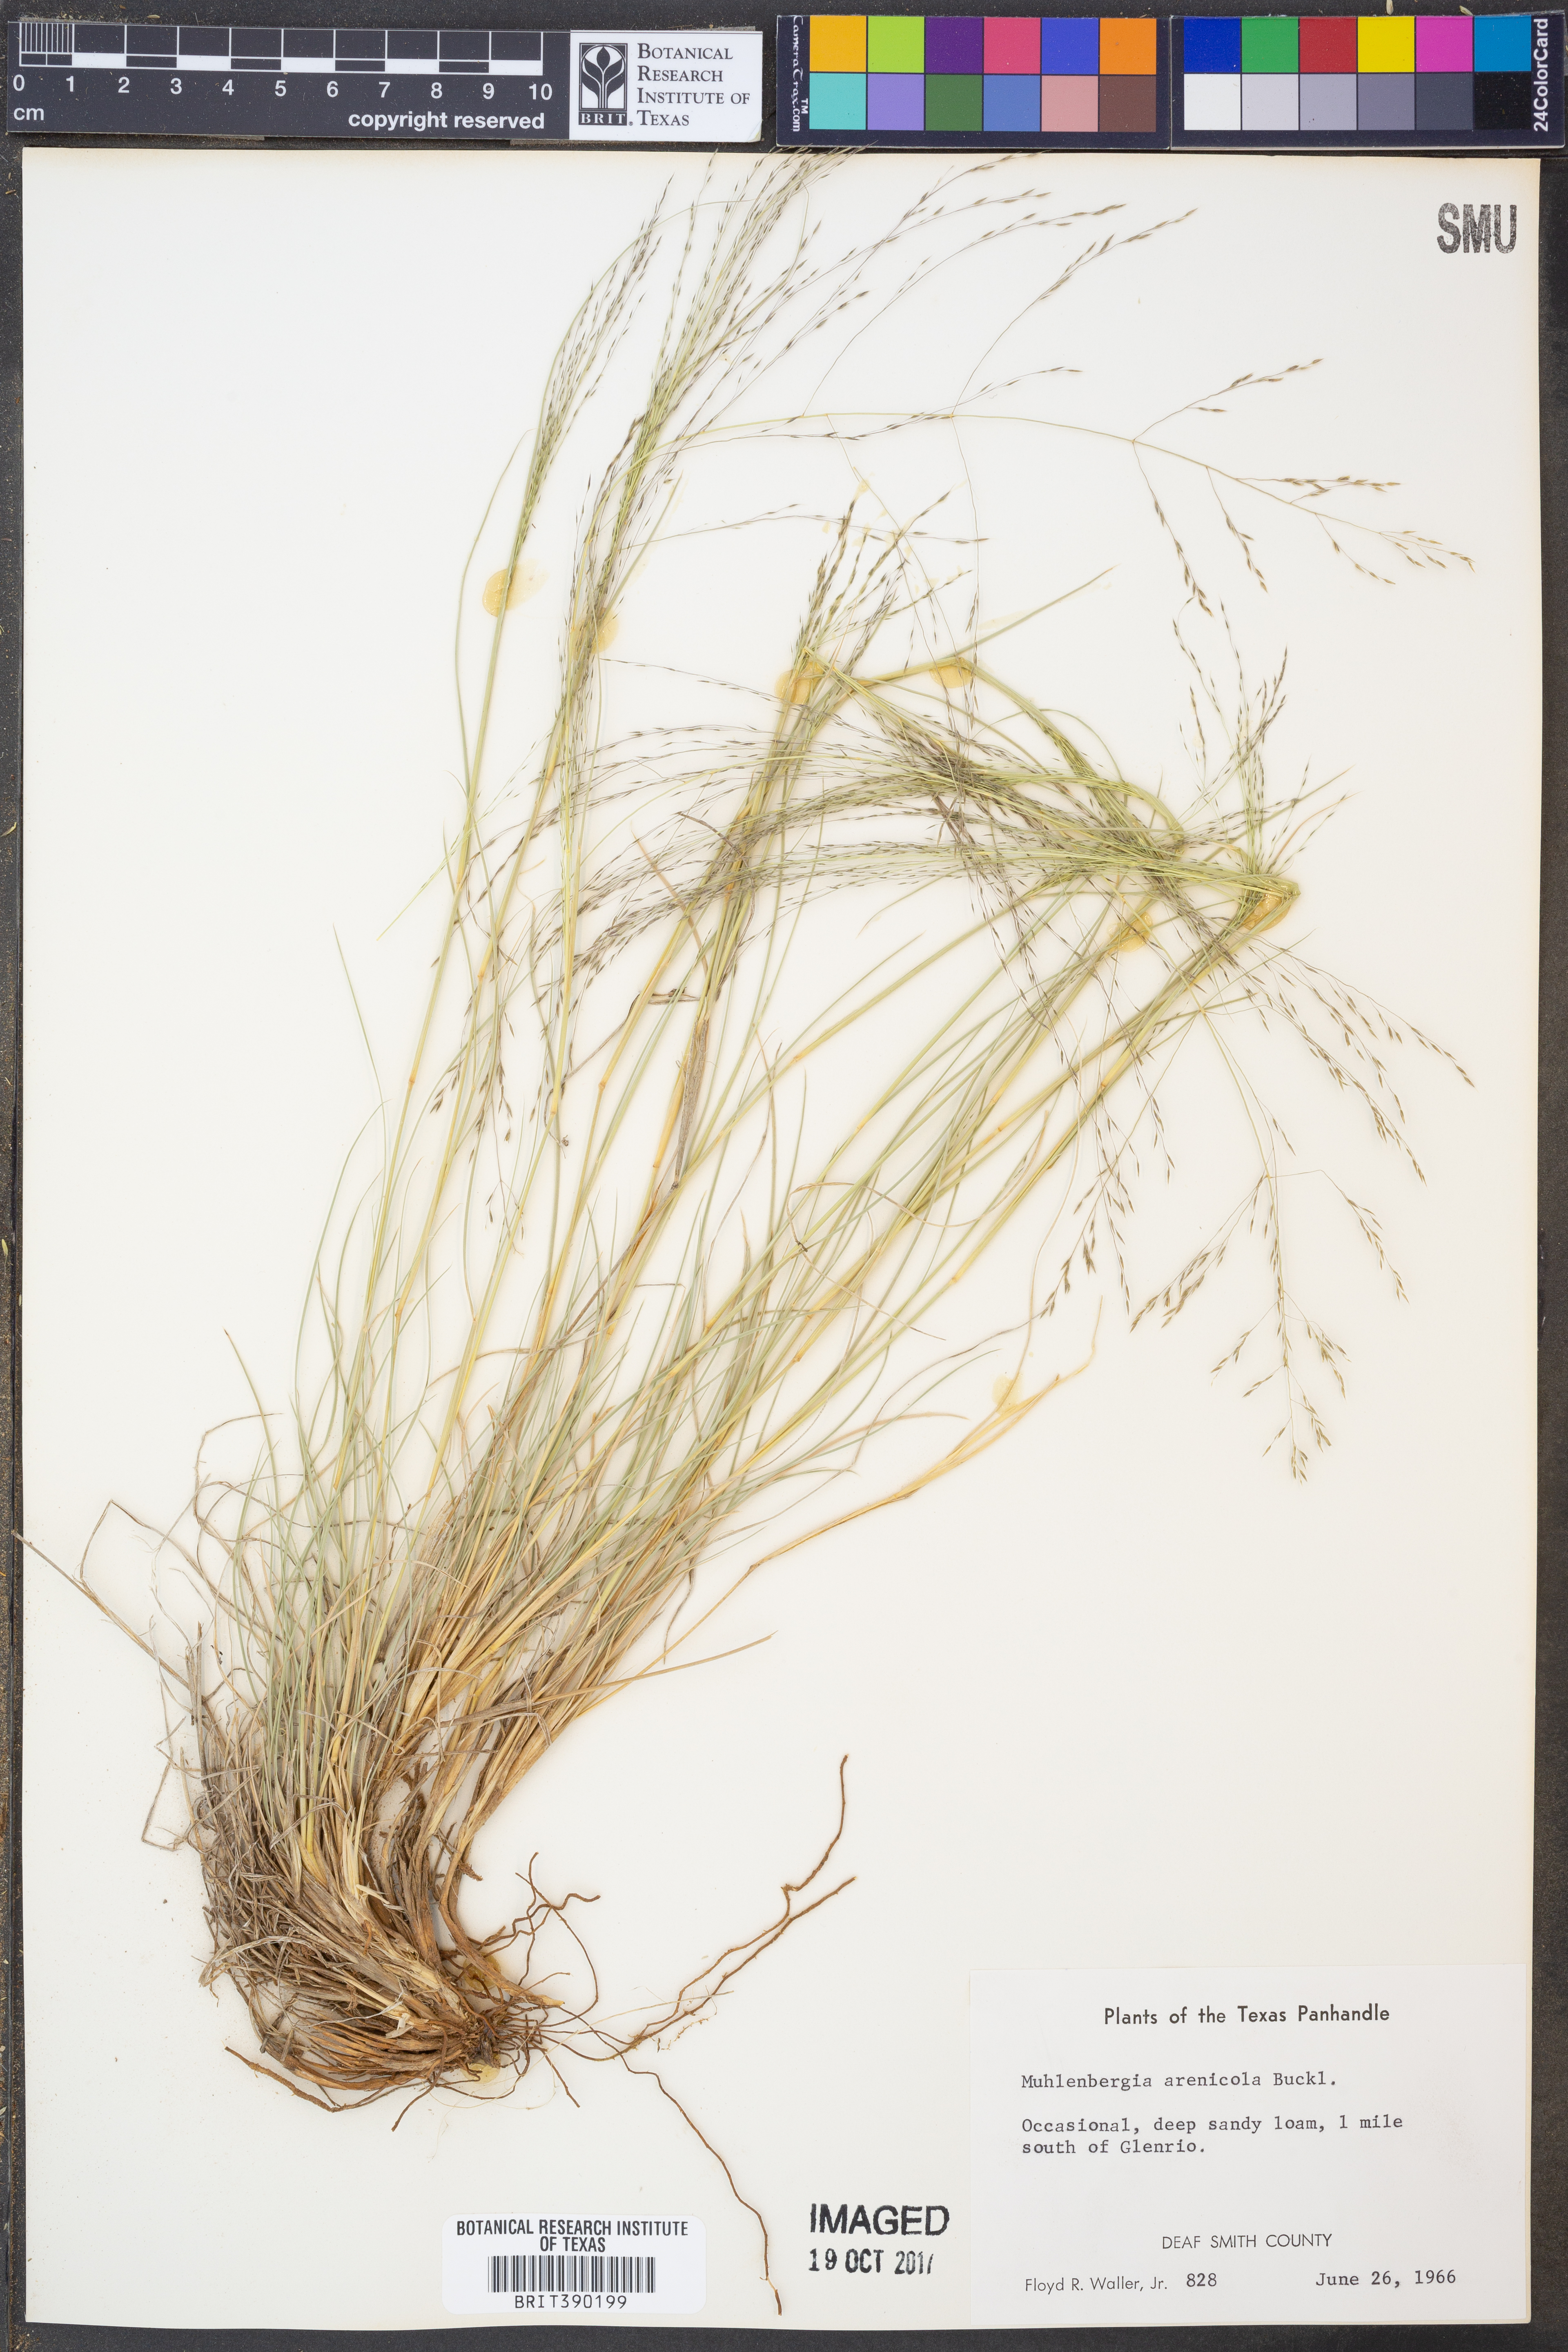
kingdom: Plantae
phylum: Tracheophyta
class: Liliopsida
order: Poales
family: Poaceae
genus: Muhlenbergia
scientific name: Muhlenbergia arenicola
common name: Sand muhly
